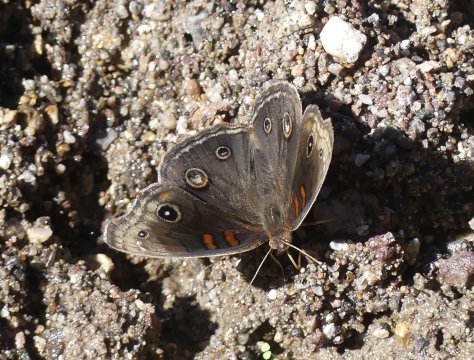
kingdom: Animalia
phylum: Arthropoda
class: Insecta
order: Lepidoptera
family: Nymphalidae
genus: Junonia
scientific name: Junonia lavinia
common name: Tropical Buckeye
